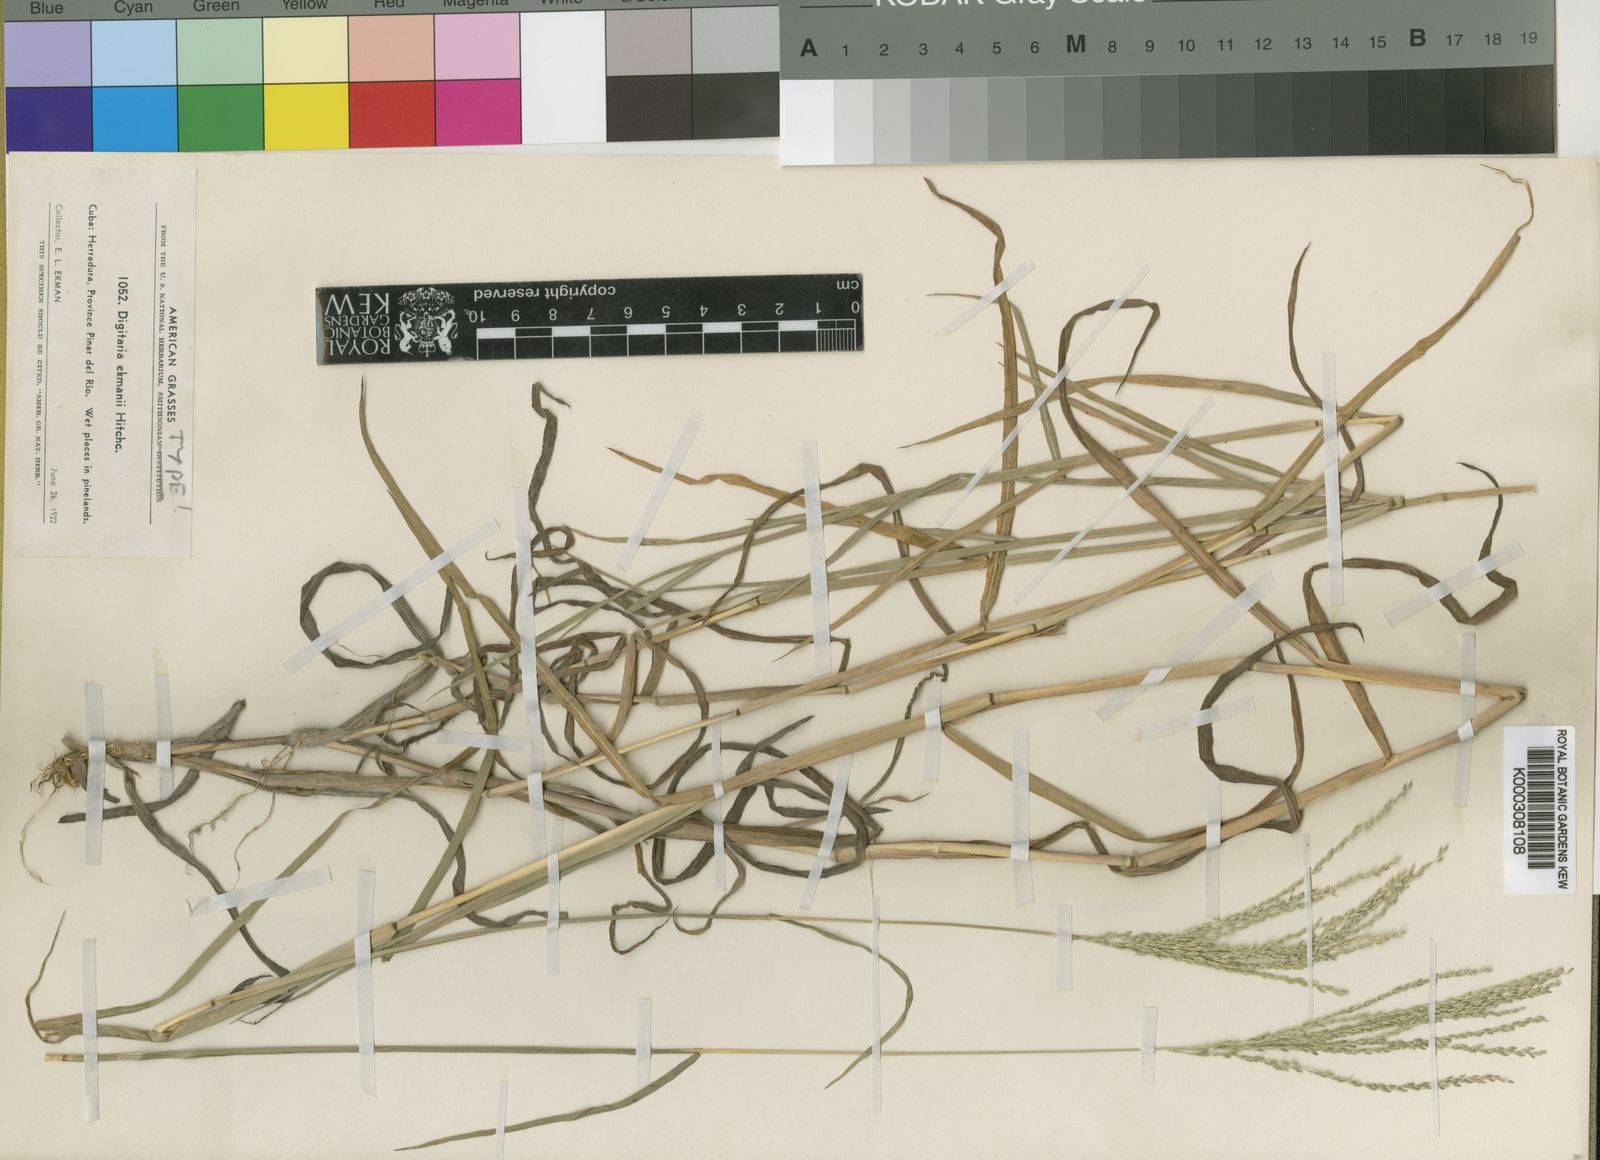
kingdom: Plantae
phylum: Tracheophyta
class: Liliopsida
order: Poales
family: Poaceae
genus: Digitaria
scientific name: Digitaria ekmanii
